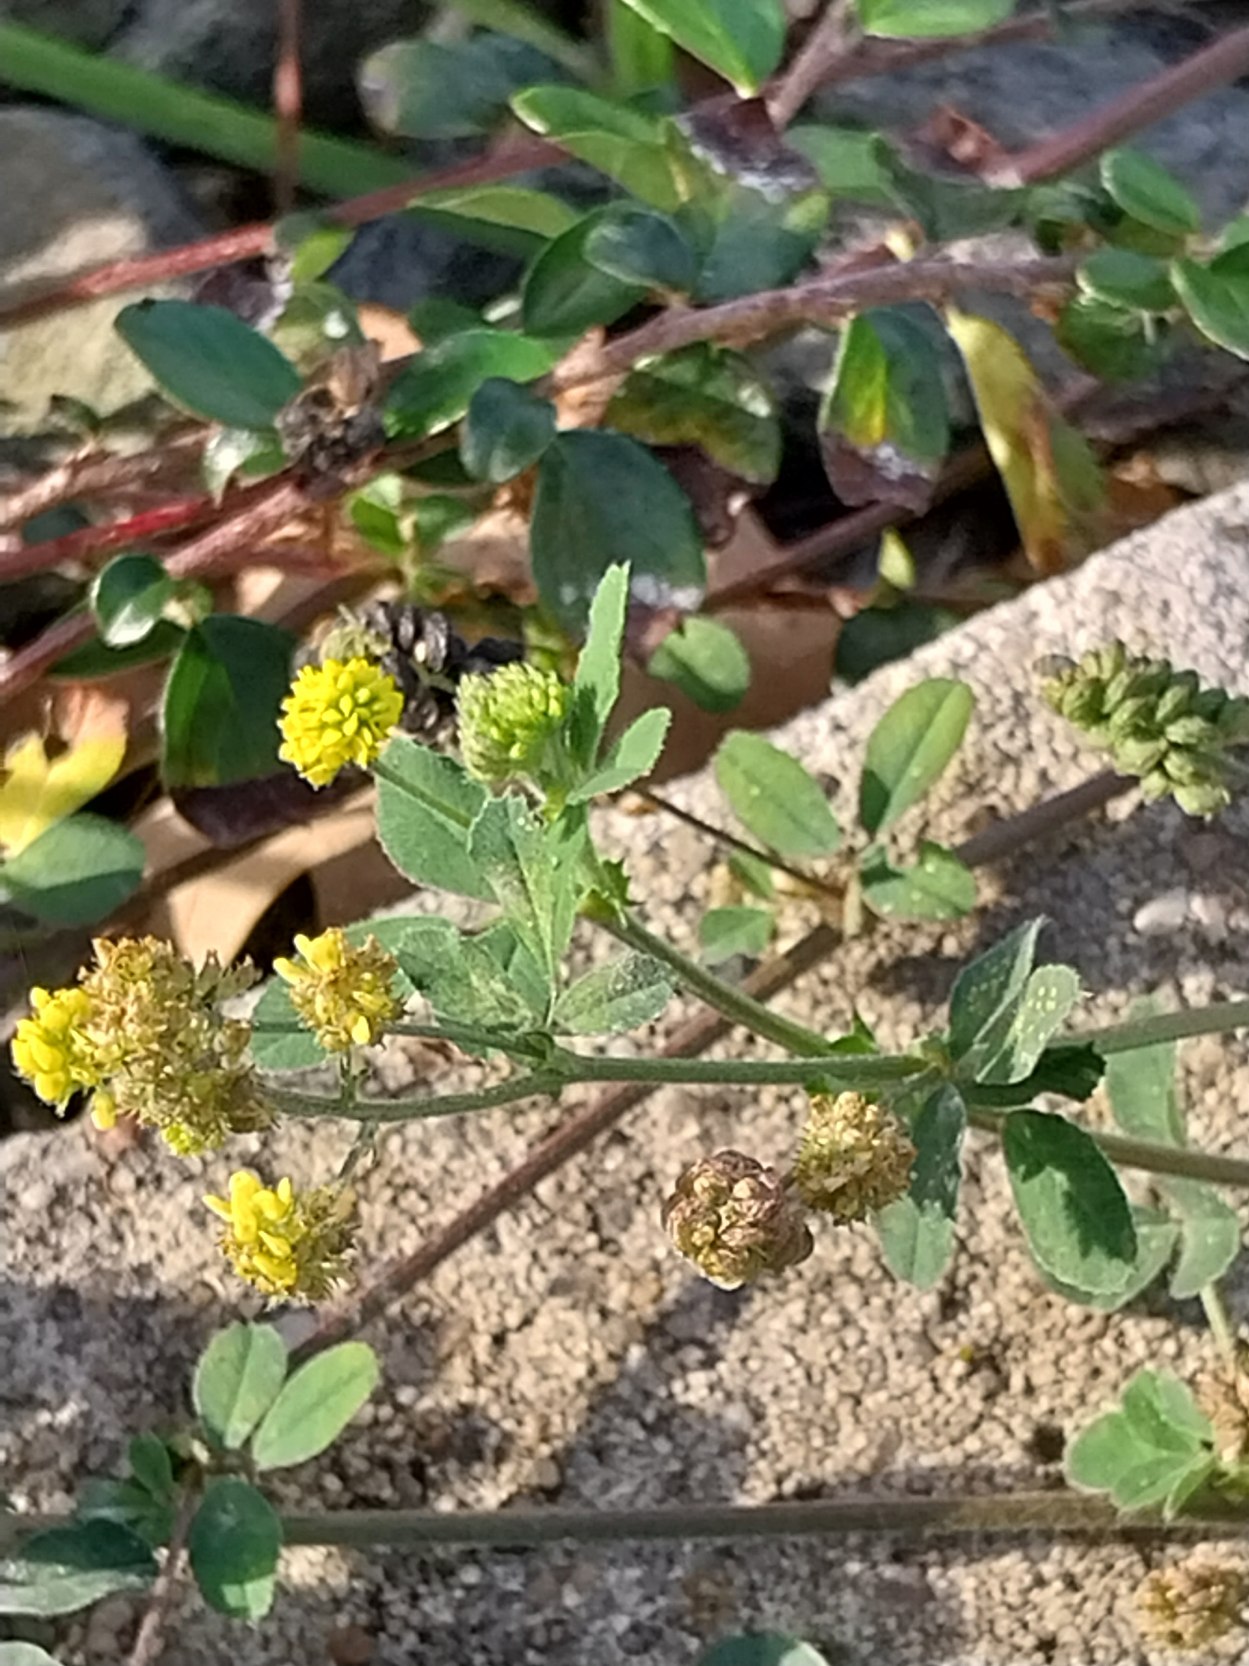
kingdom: Plantae
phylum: Tracheophyta
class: Magnoliopsida
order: Fabales
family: Fabaceae
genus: Medicago
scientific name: Medicago lupulina
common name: Humle-sneglebælg
